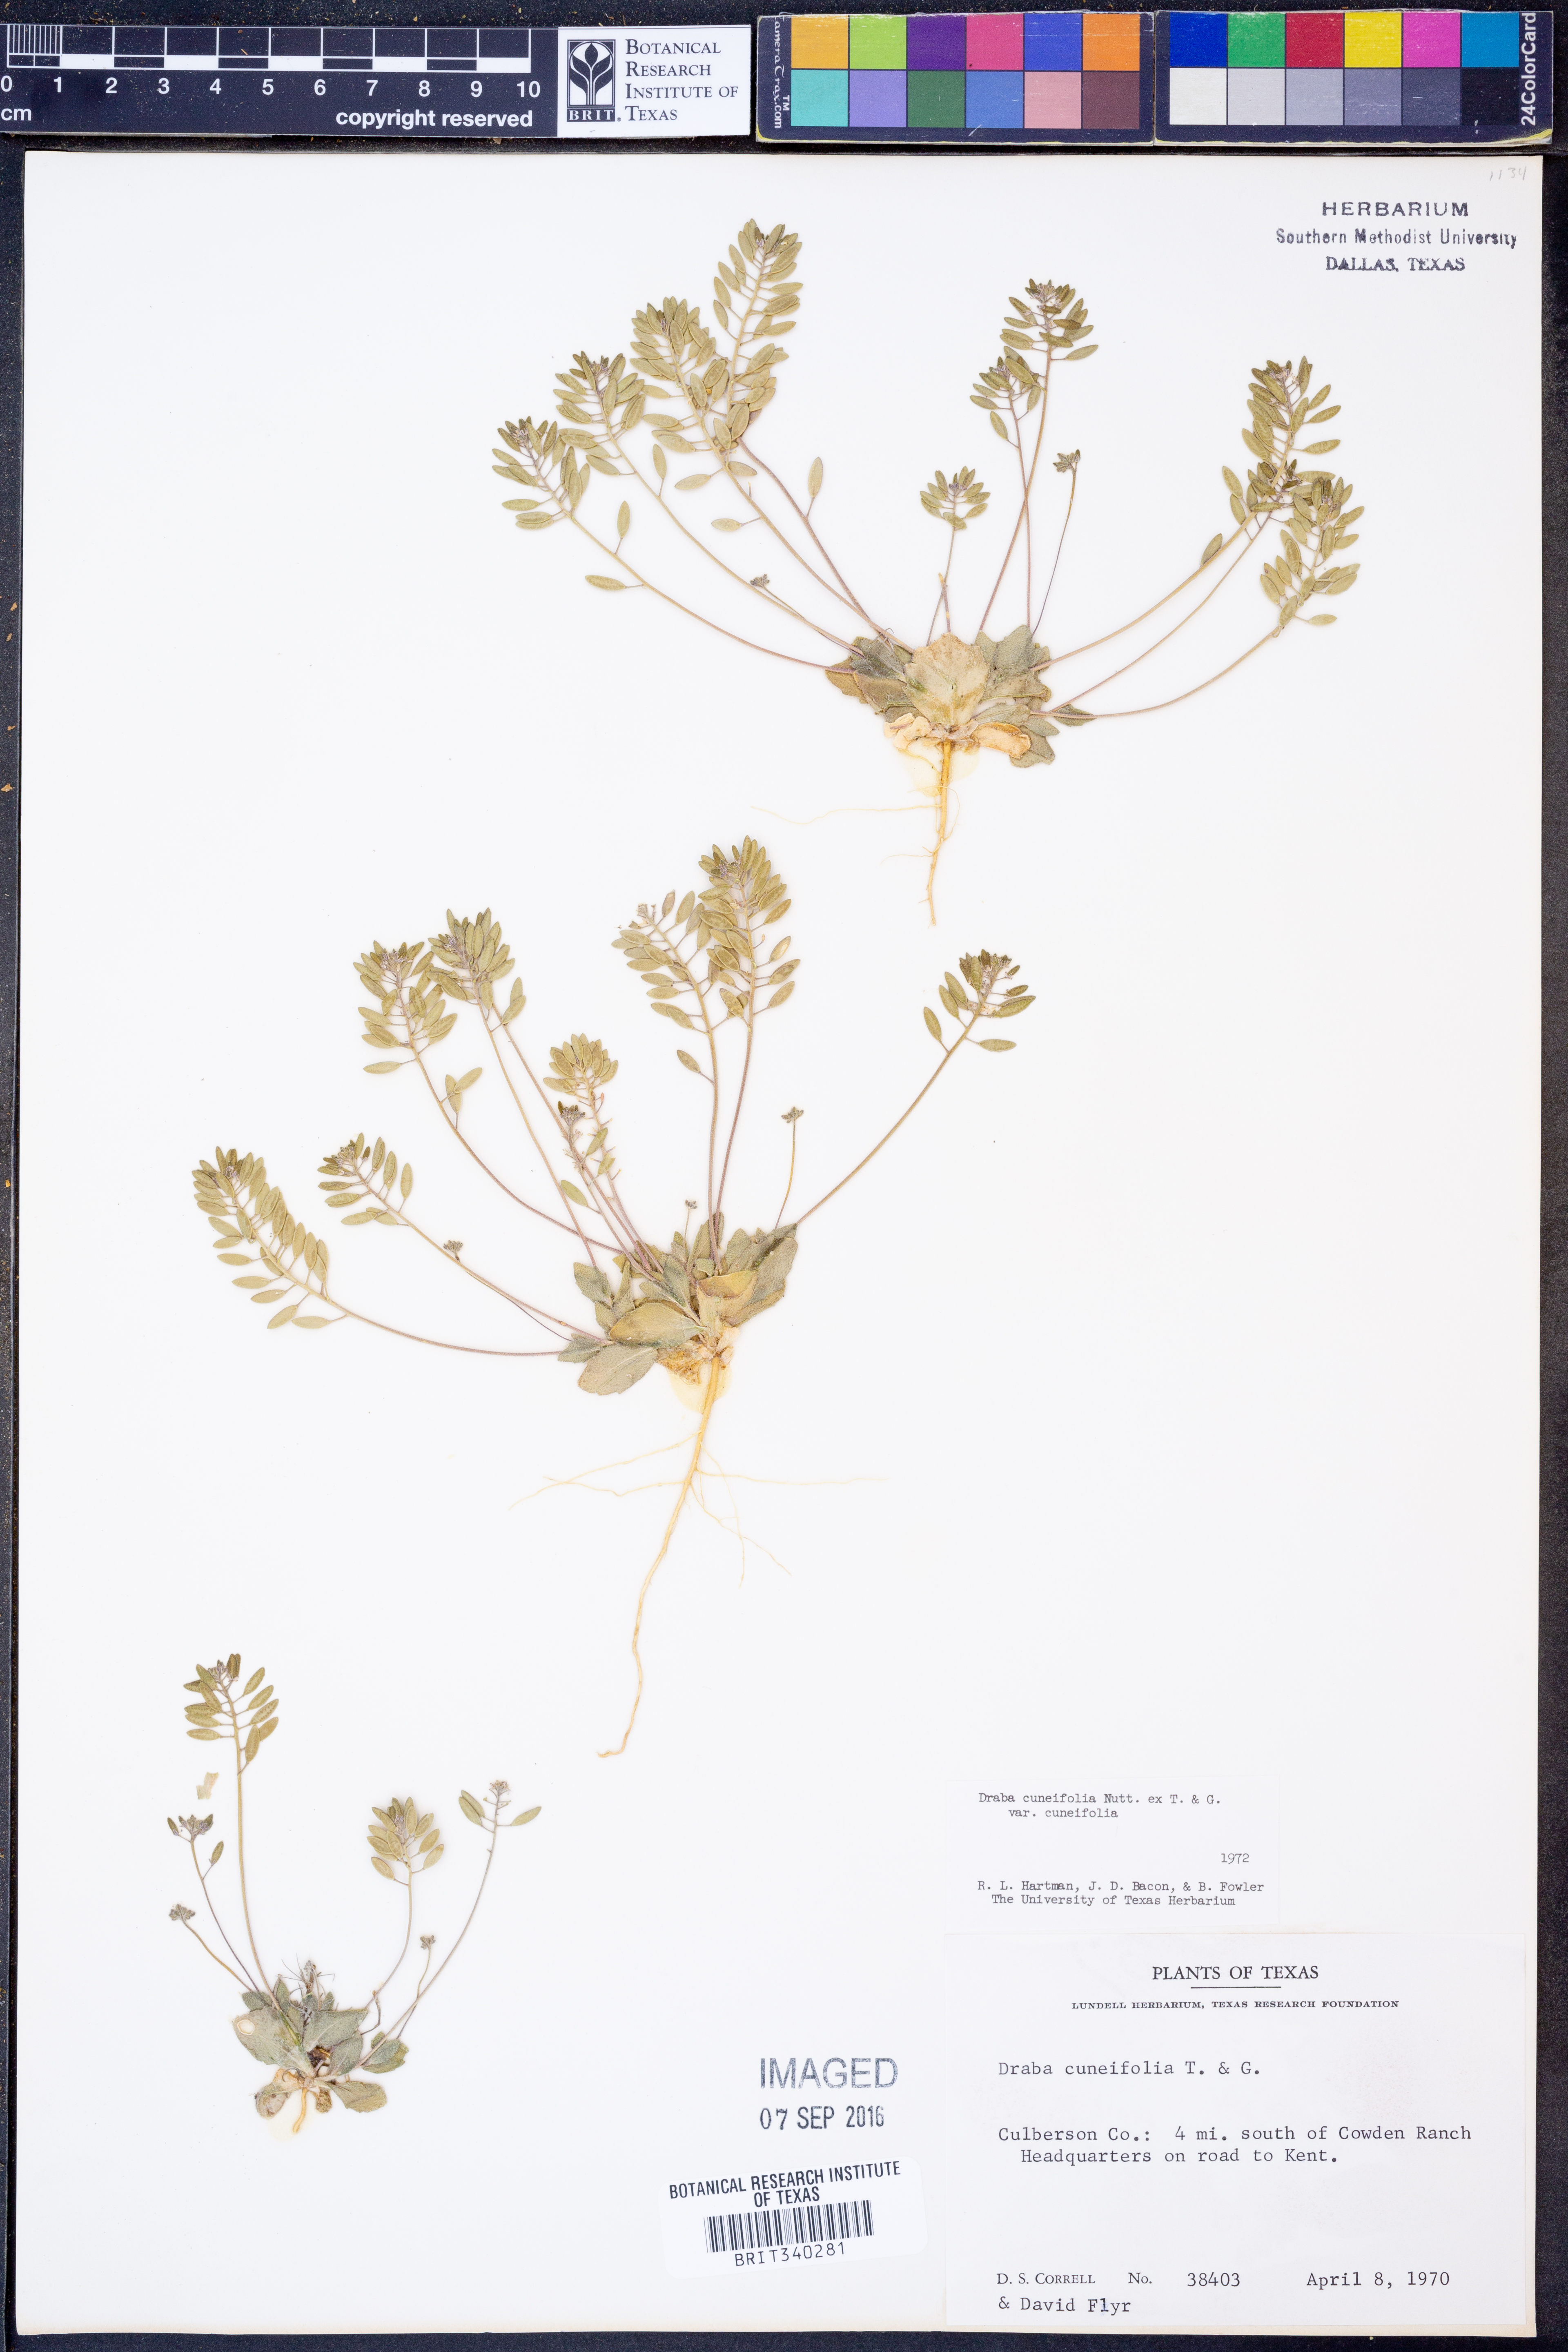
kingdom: Plantae
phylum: Tracheophyta
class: Magnoliopsida
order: Brassicales
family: Brassicaceae
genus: Tomostima
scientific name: Tomostima cuneifolia
